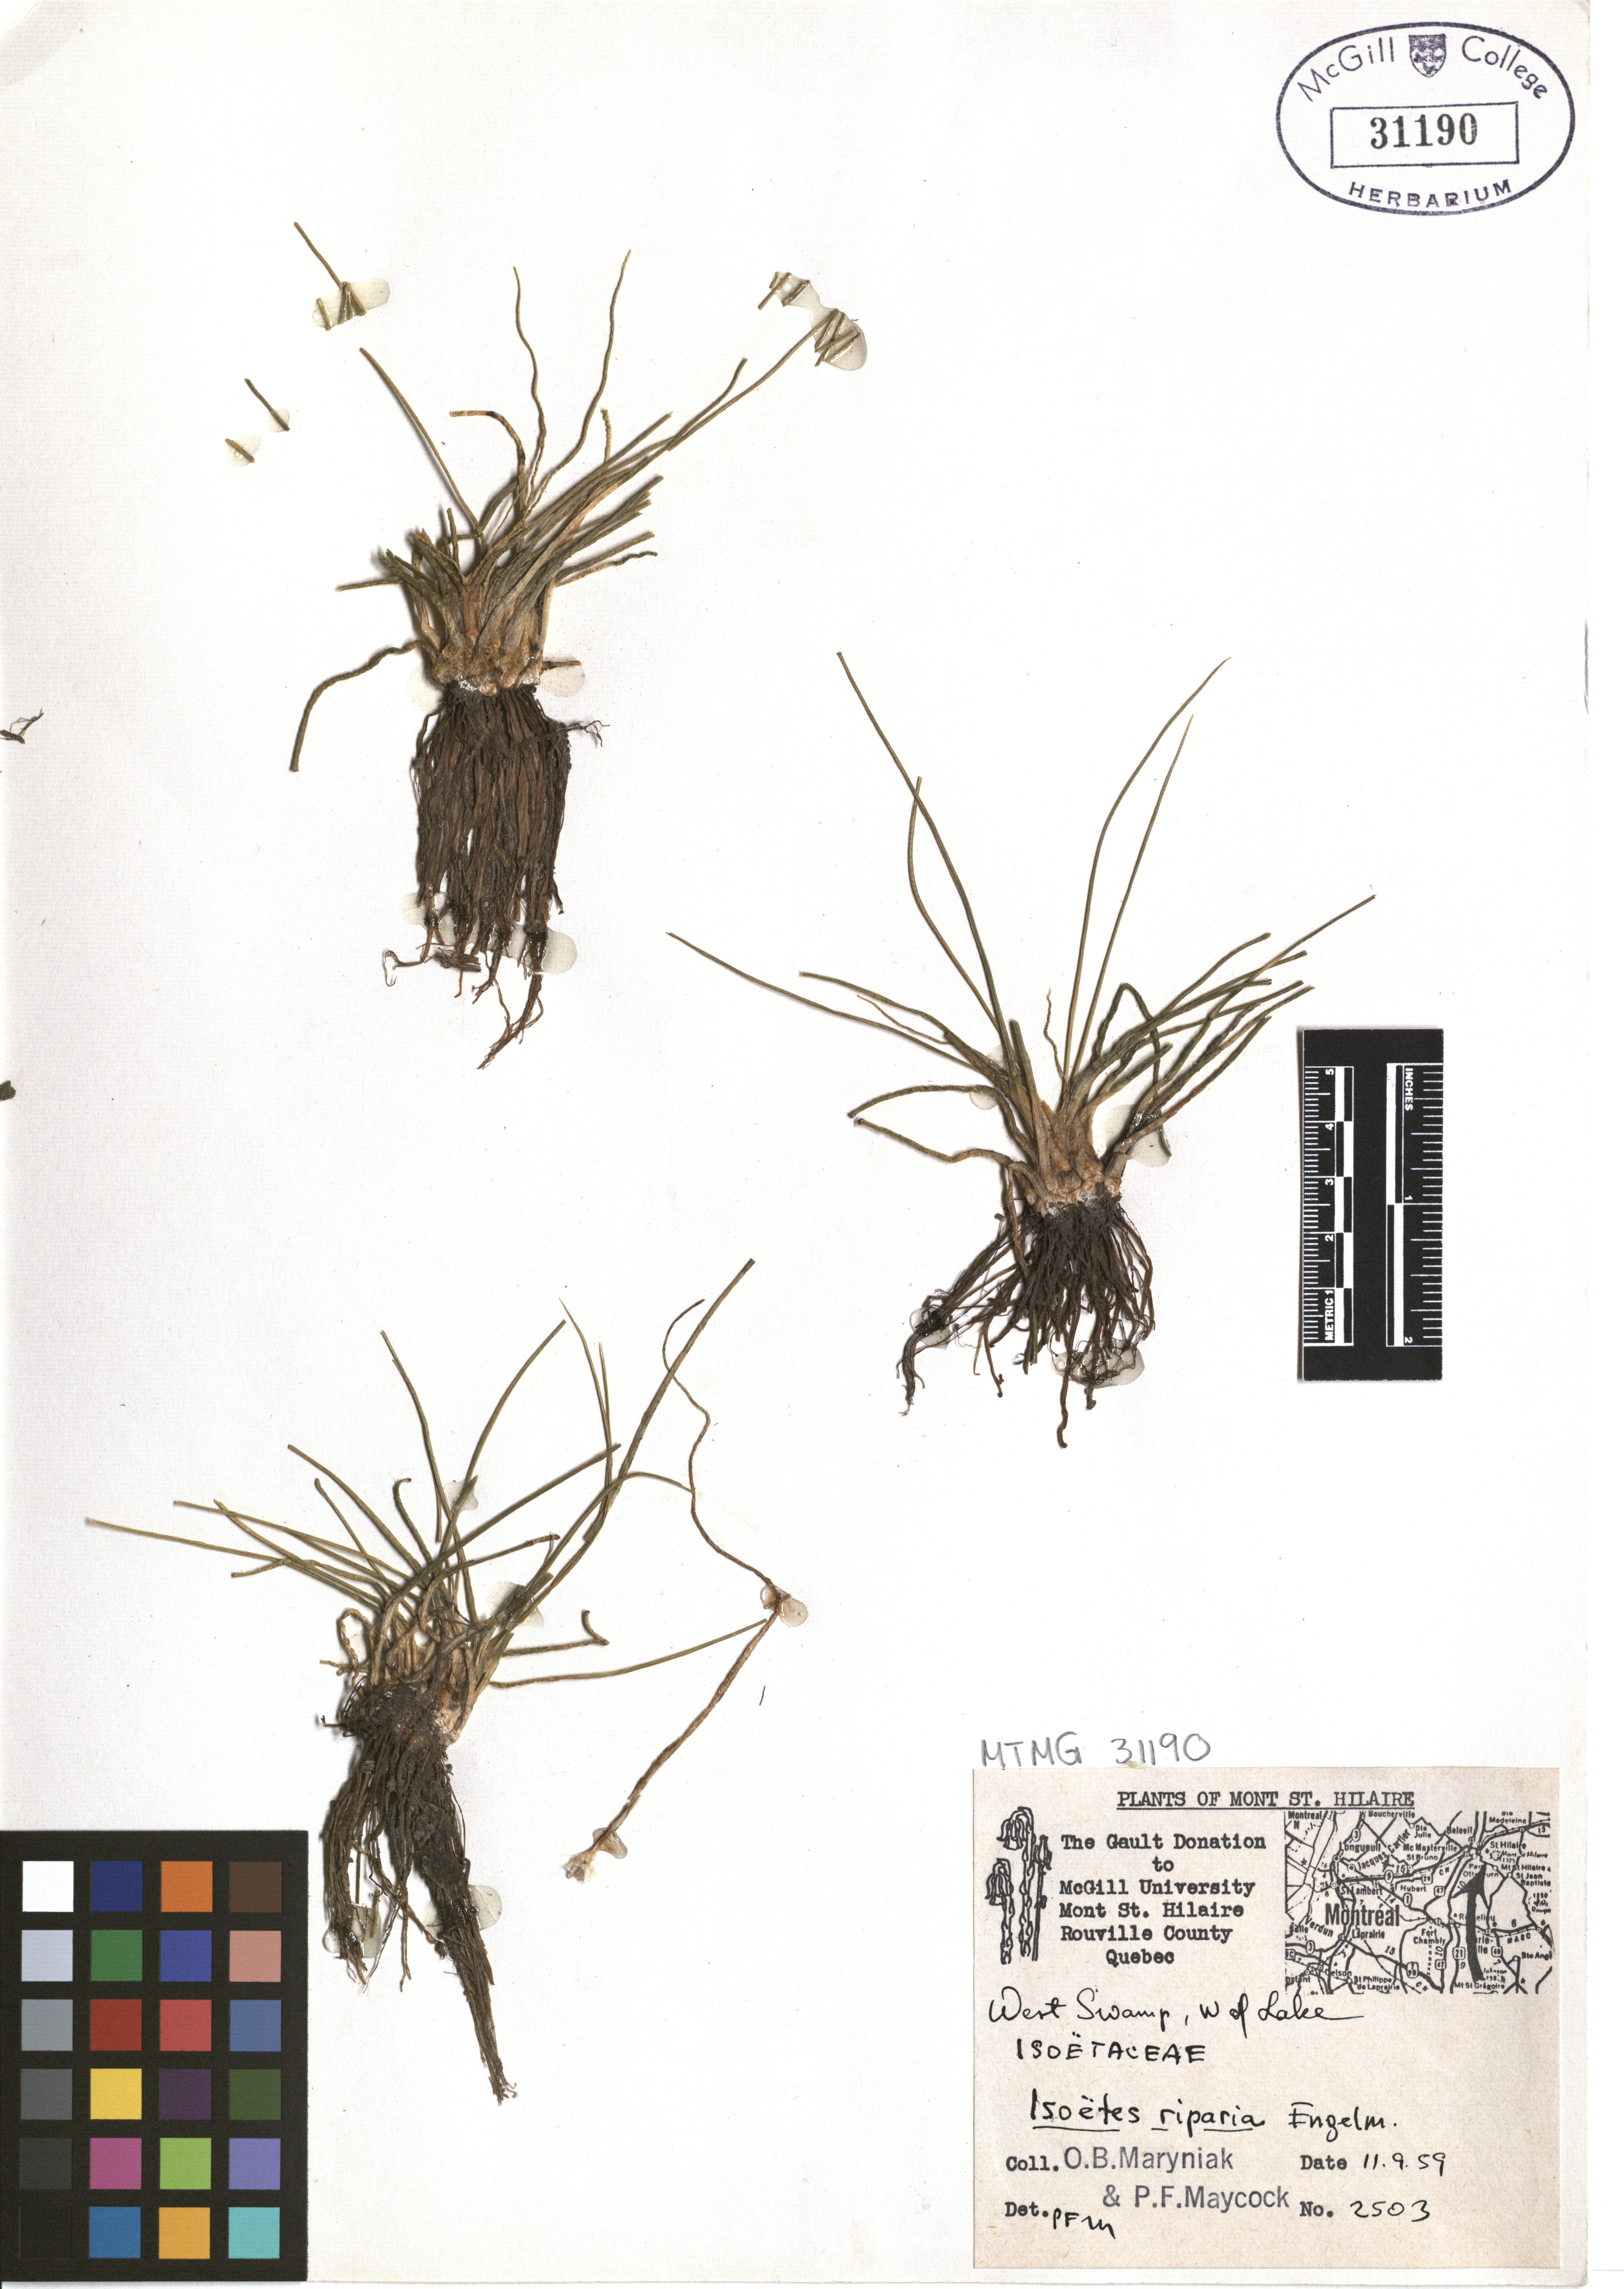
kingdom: Plantae
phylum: Tracheophyta
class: Lycopodiopsida
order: Isoetales
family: Isoetaceae
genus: Isoetes
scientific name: Isoetes riparia
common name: Riverbank quillwort
